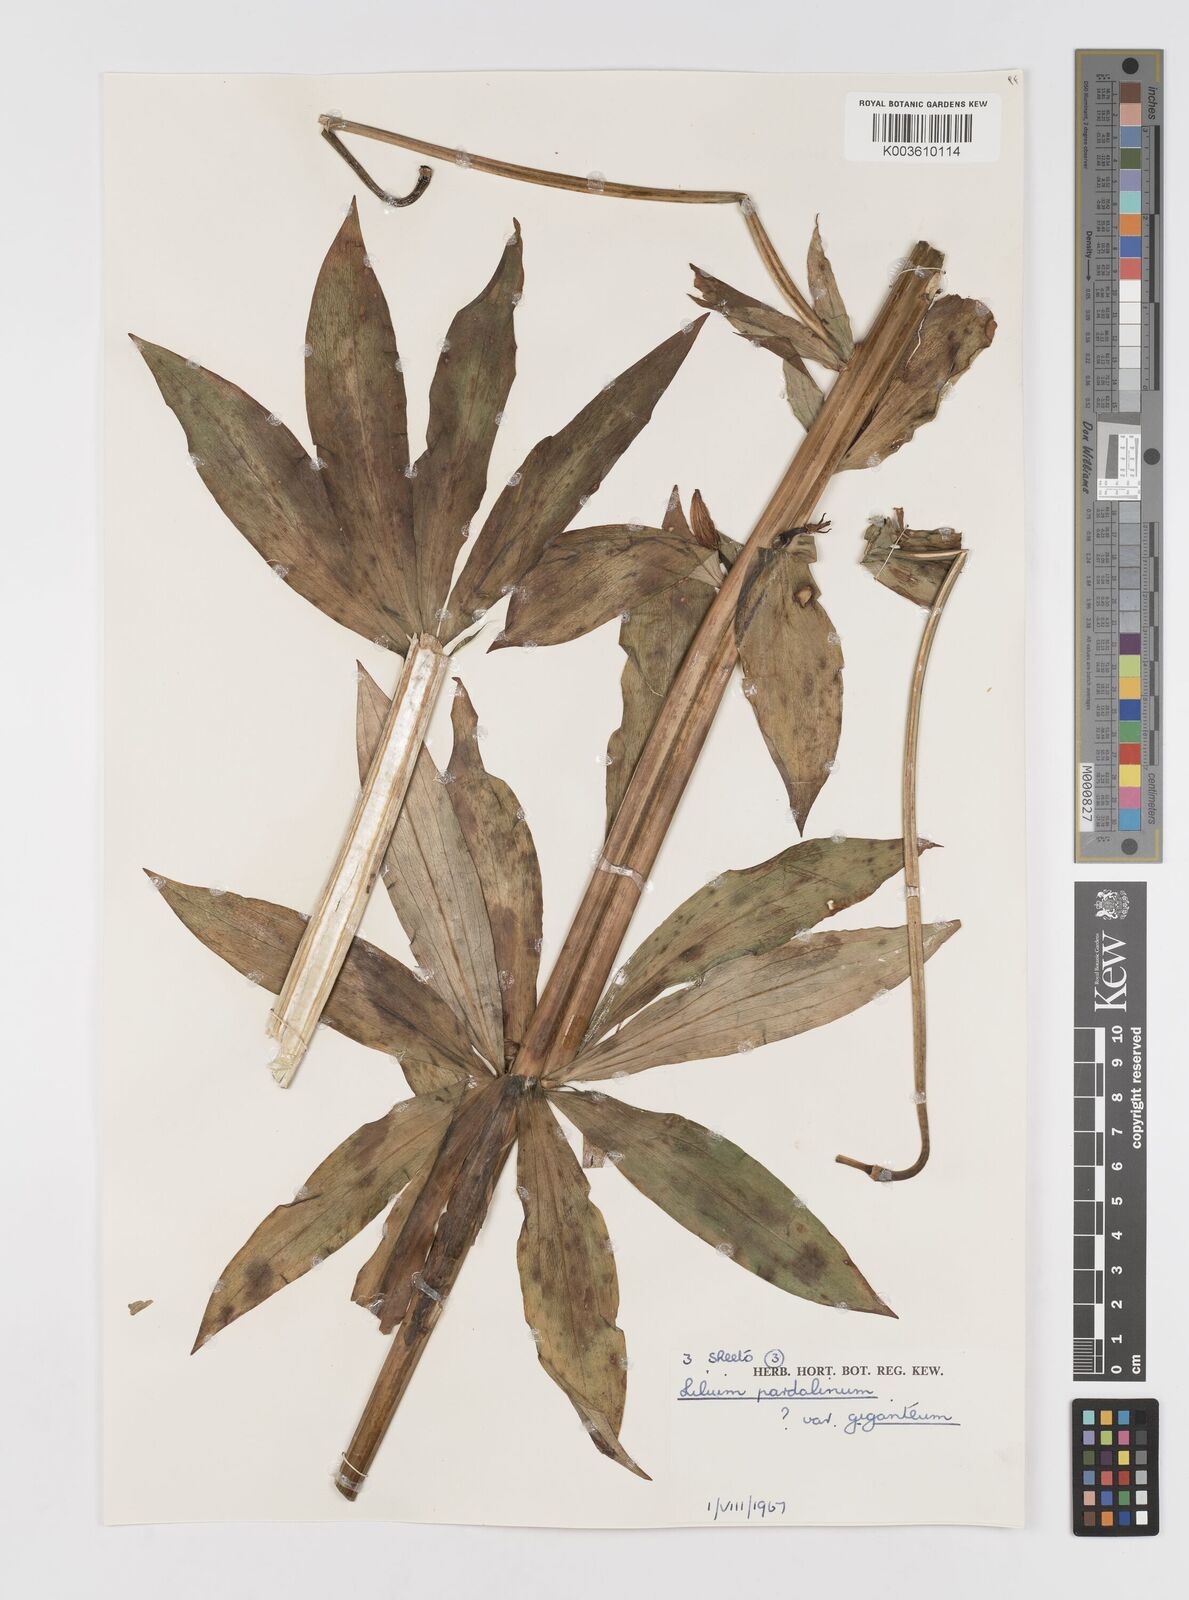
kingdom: Plantae
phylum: Tracheophyta
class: Liliopsida
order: Liliales
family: Liliaceae
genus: Lilium
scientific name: Lilium pardalinum
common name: Panther lily
